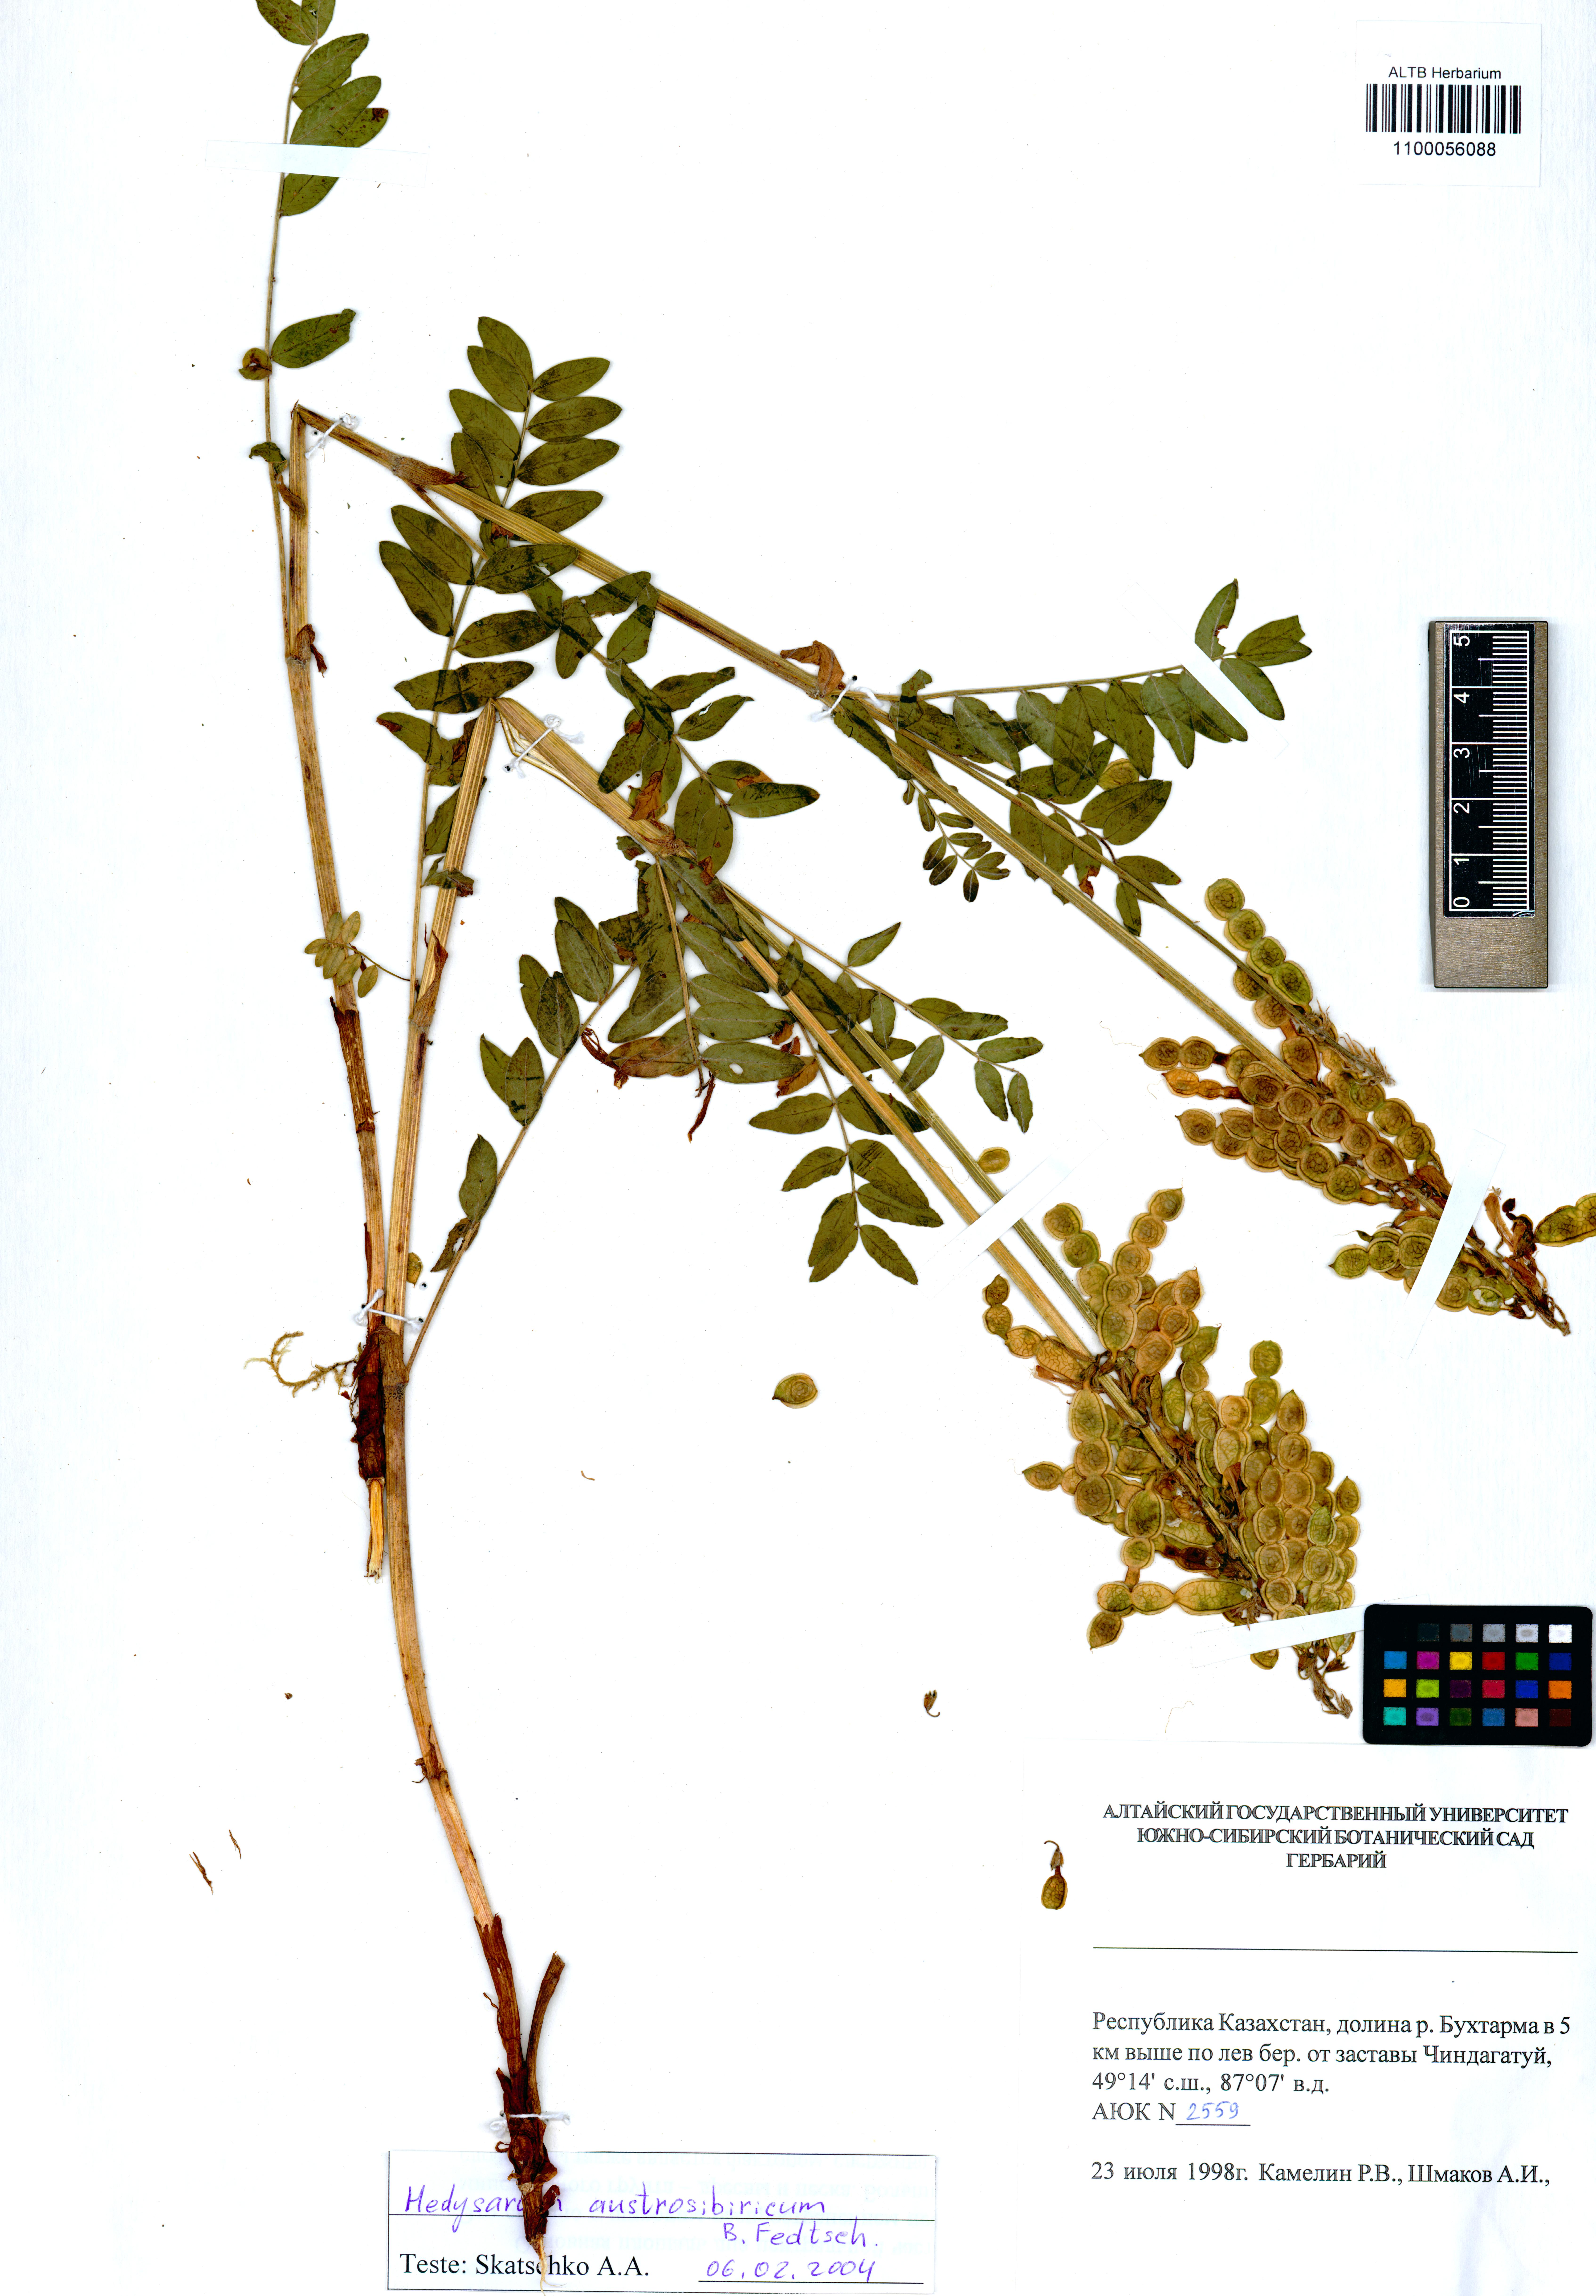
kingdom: Plantae
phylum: Tracheophyta
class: Magnoliopsida
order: Fabales
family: Fabaceae
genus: Hedysarum
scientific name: Hedysarum neglectum
